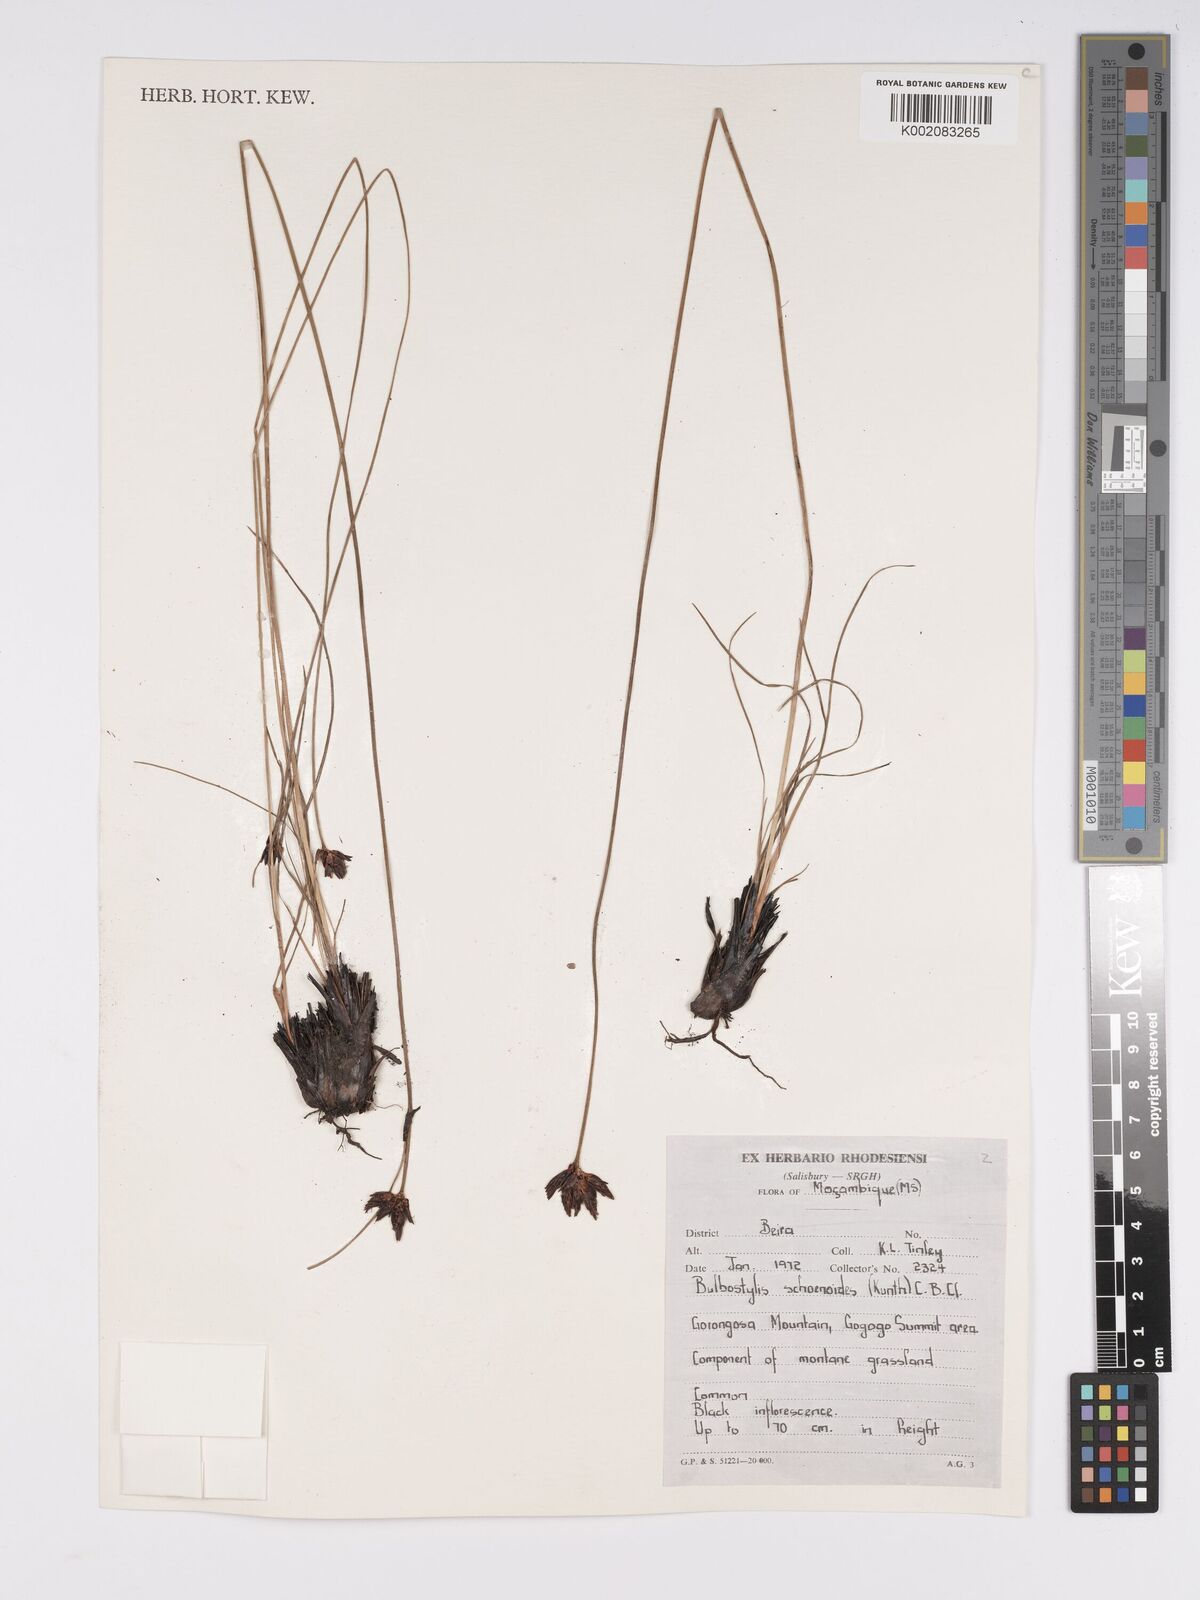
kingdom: Plantae
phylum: Tracheophyta
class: Liliopsida
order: Poales
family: Cyperaceae
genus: Bulbostylis
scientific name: Bulbostylis schoenoides
